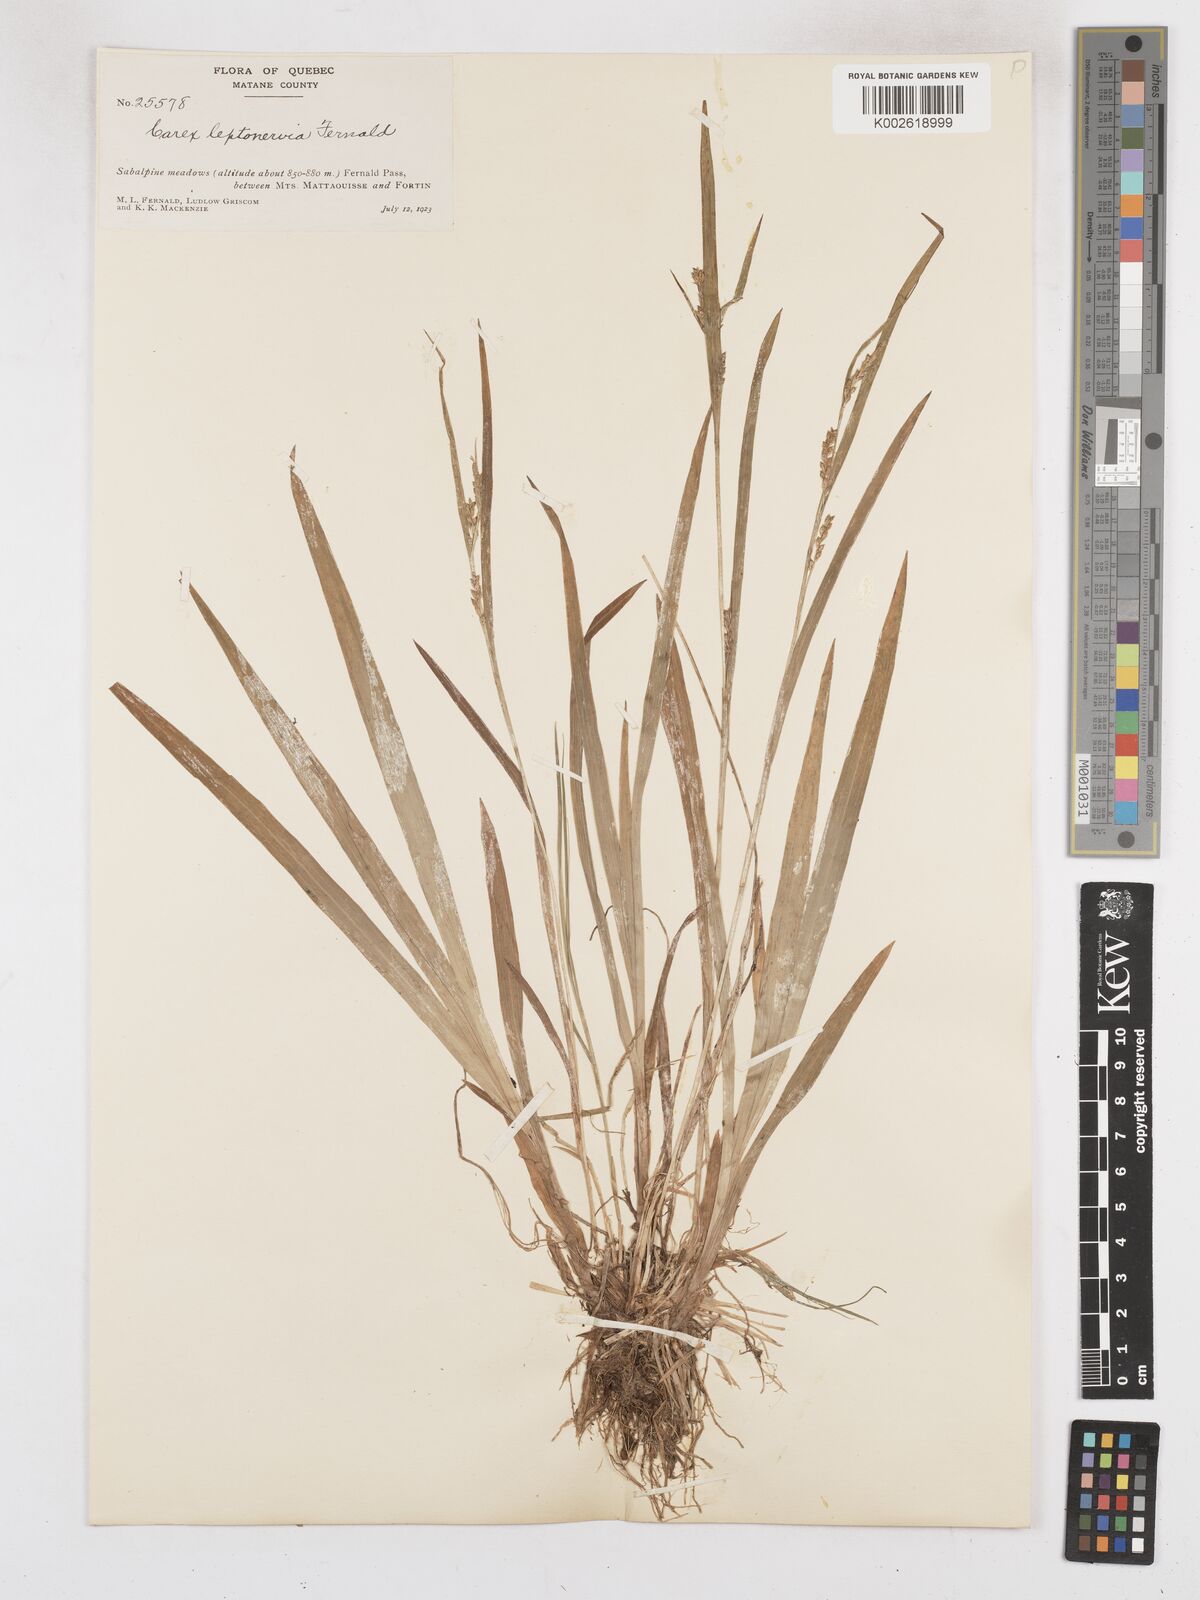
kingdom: Plantae
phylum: Tracheophyta
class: Liliopsida
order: Poales
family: Cyperaceae
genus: Carex
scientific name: Carex leptonervia
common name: Few-nerved wood sedge
